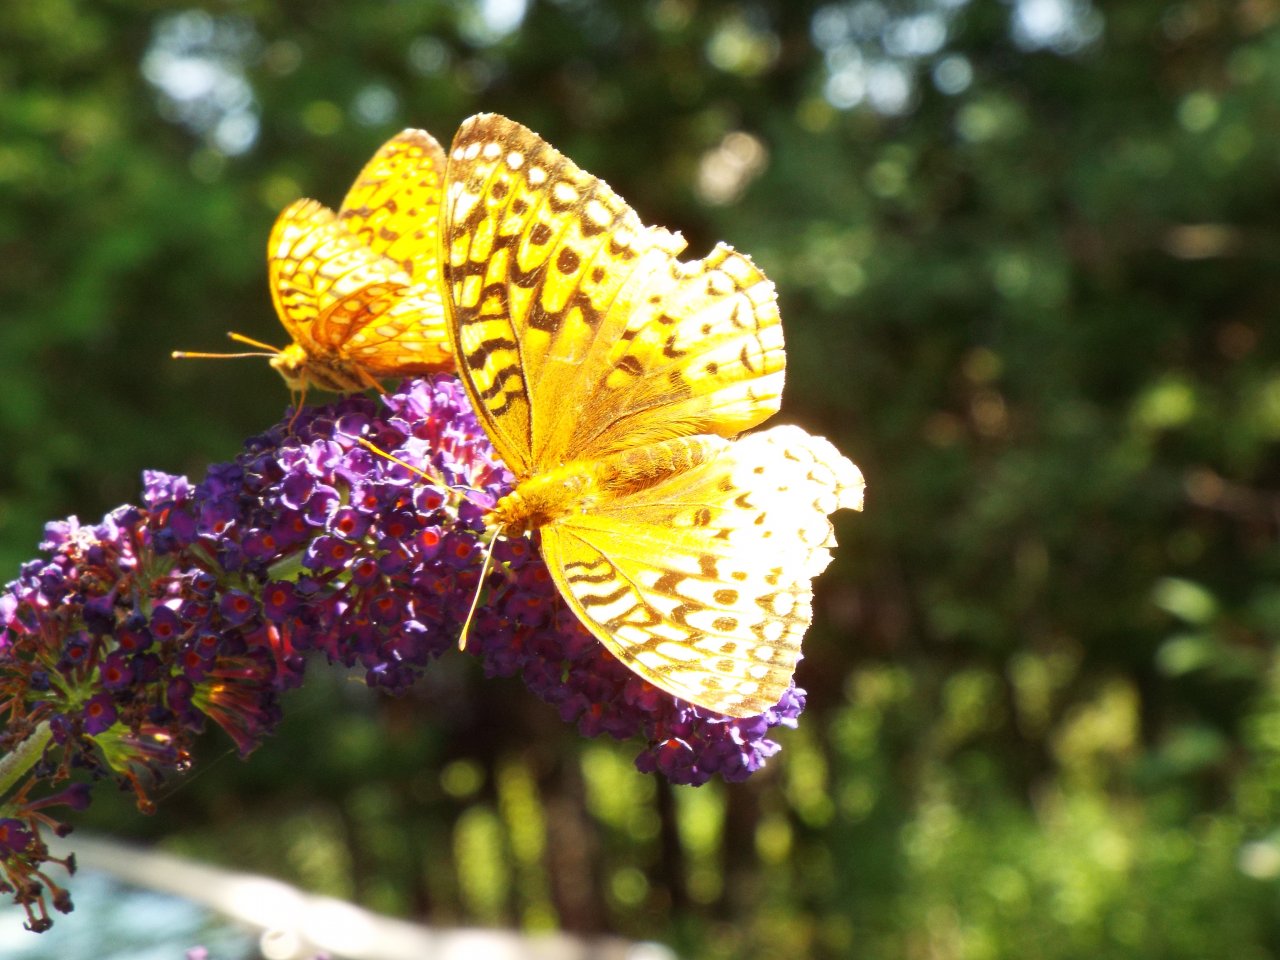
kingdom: Animalia
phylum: Arthropoda
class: Insecta
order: Lepidoptera
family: Nymphalidae
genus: Speyeria
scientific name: Speyeria cybele
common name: Great Spangled Fritillary
